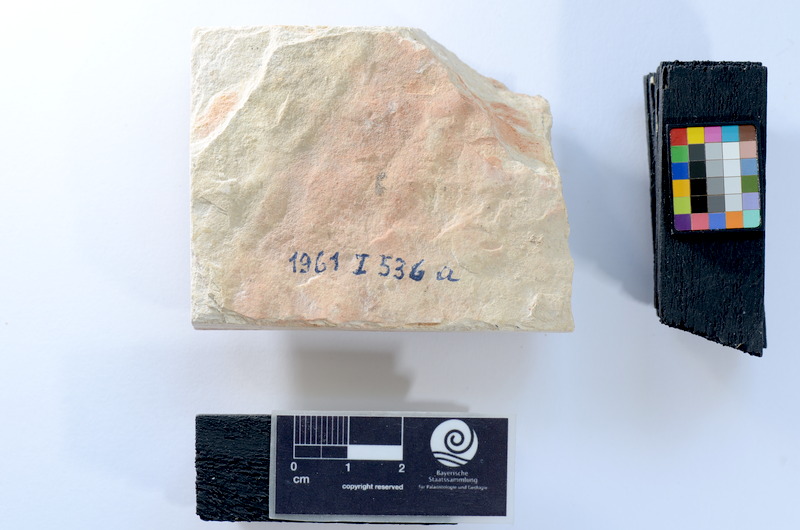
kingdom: Animalia
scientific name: Animalia
